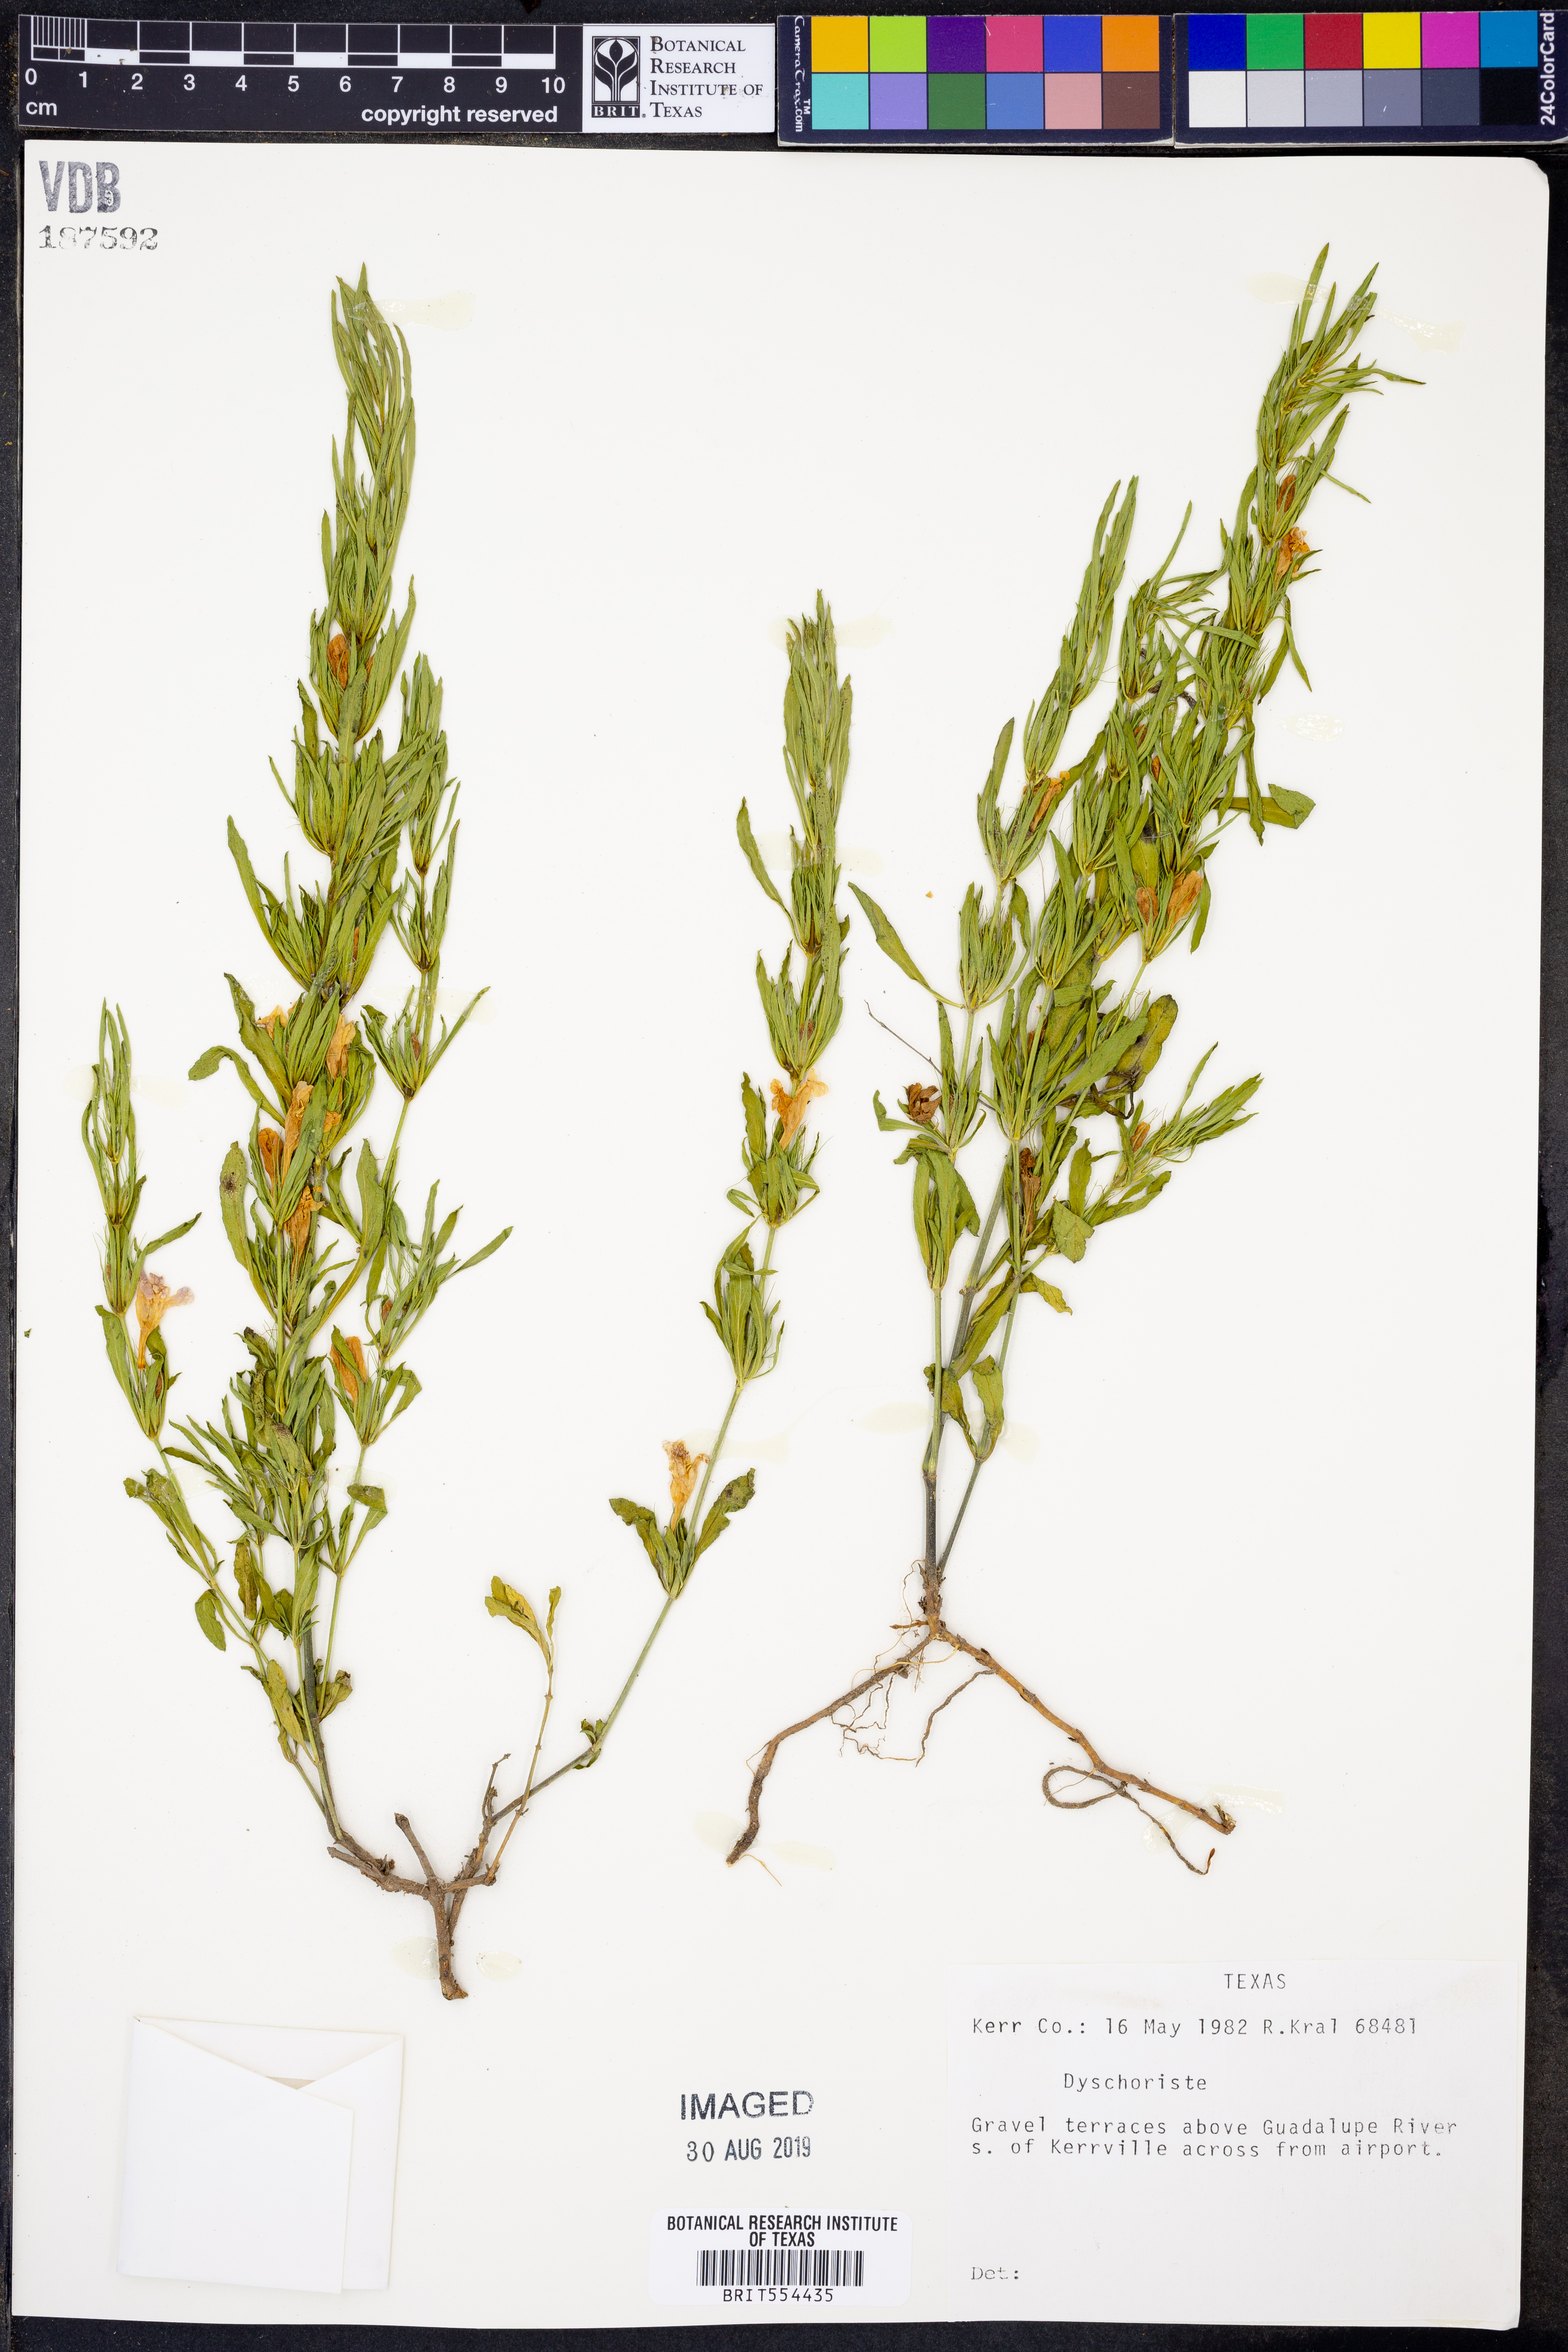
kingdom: Plantae
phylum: Tracheophyta
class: Magnoliopsida
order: Lamiales
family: Acanthaceae
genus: Dyschoriste
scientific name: Dyschoriste
